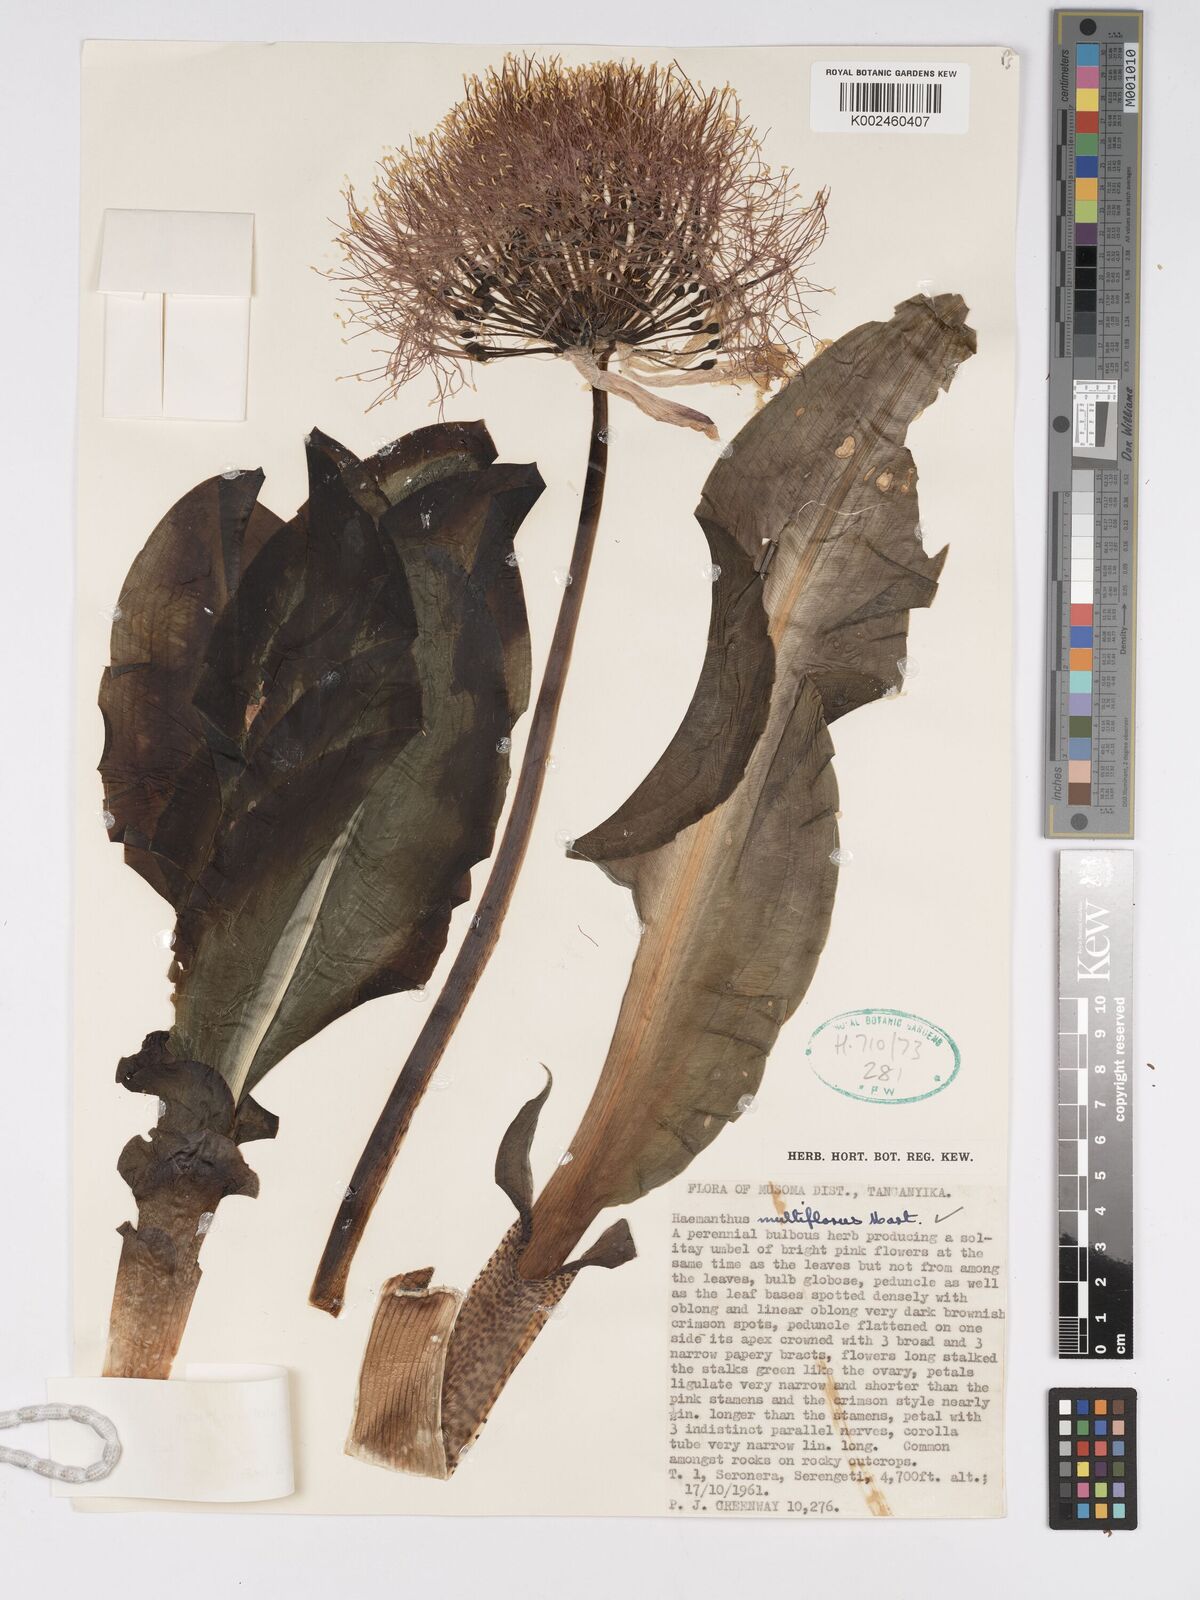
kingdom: Plantae
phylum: Tracheophyta
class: Liliopsida
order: Asparagales
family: Amaryllidaceae
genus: Scadoxus
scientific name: Scadoxus multiflorus
